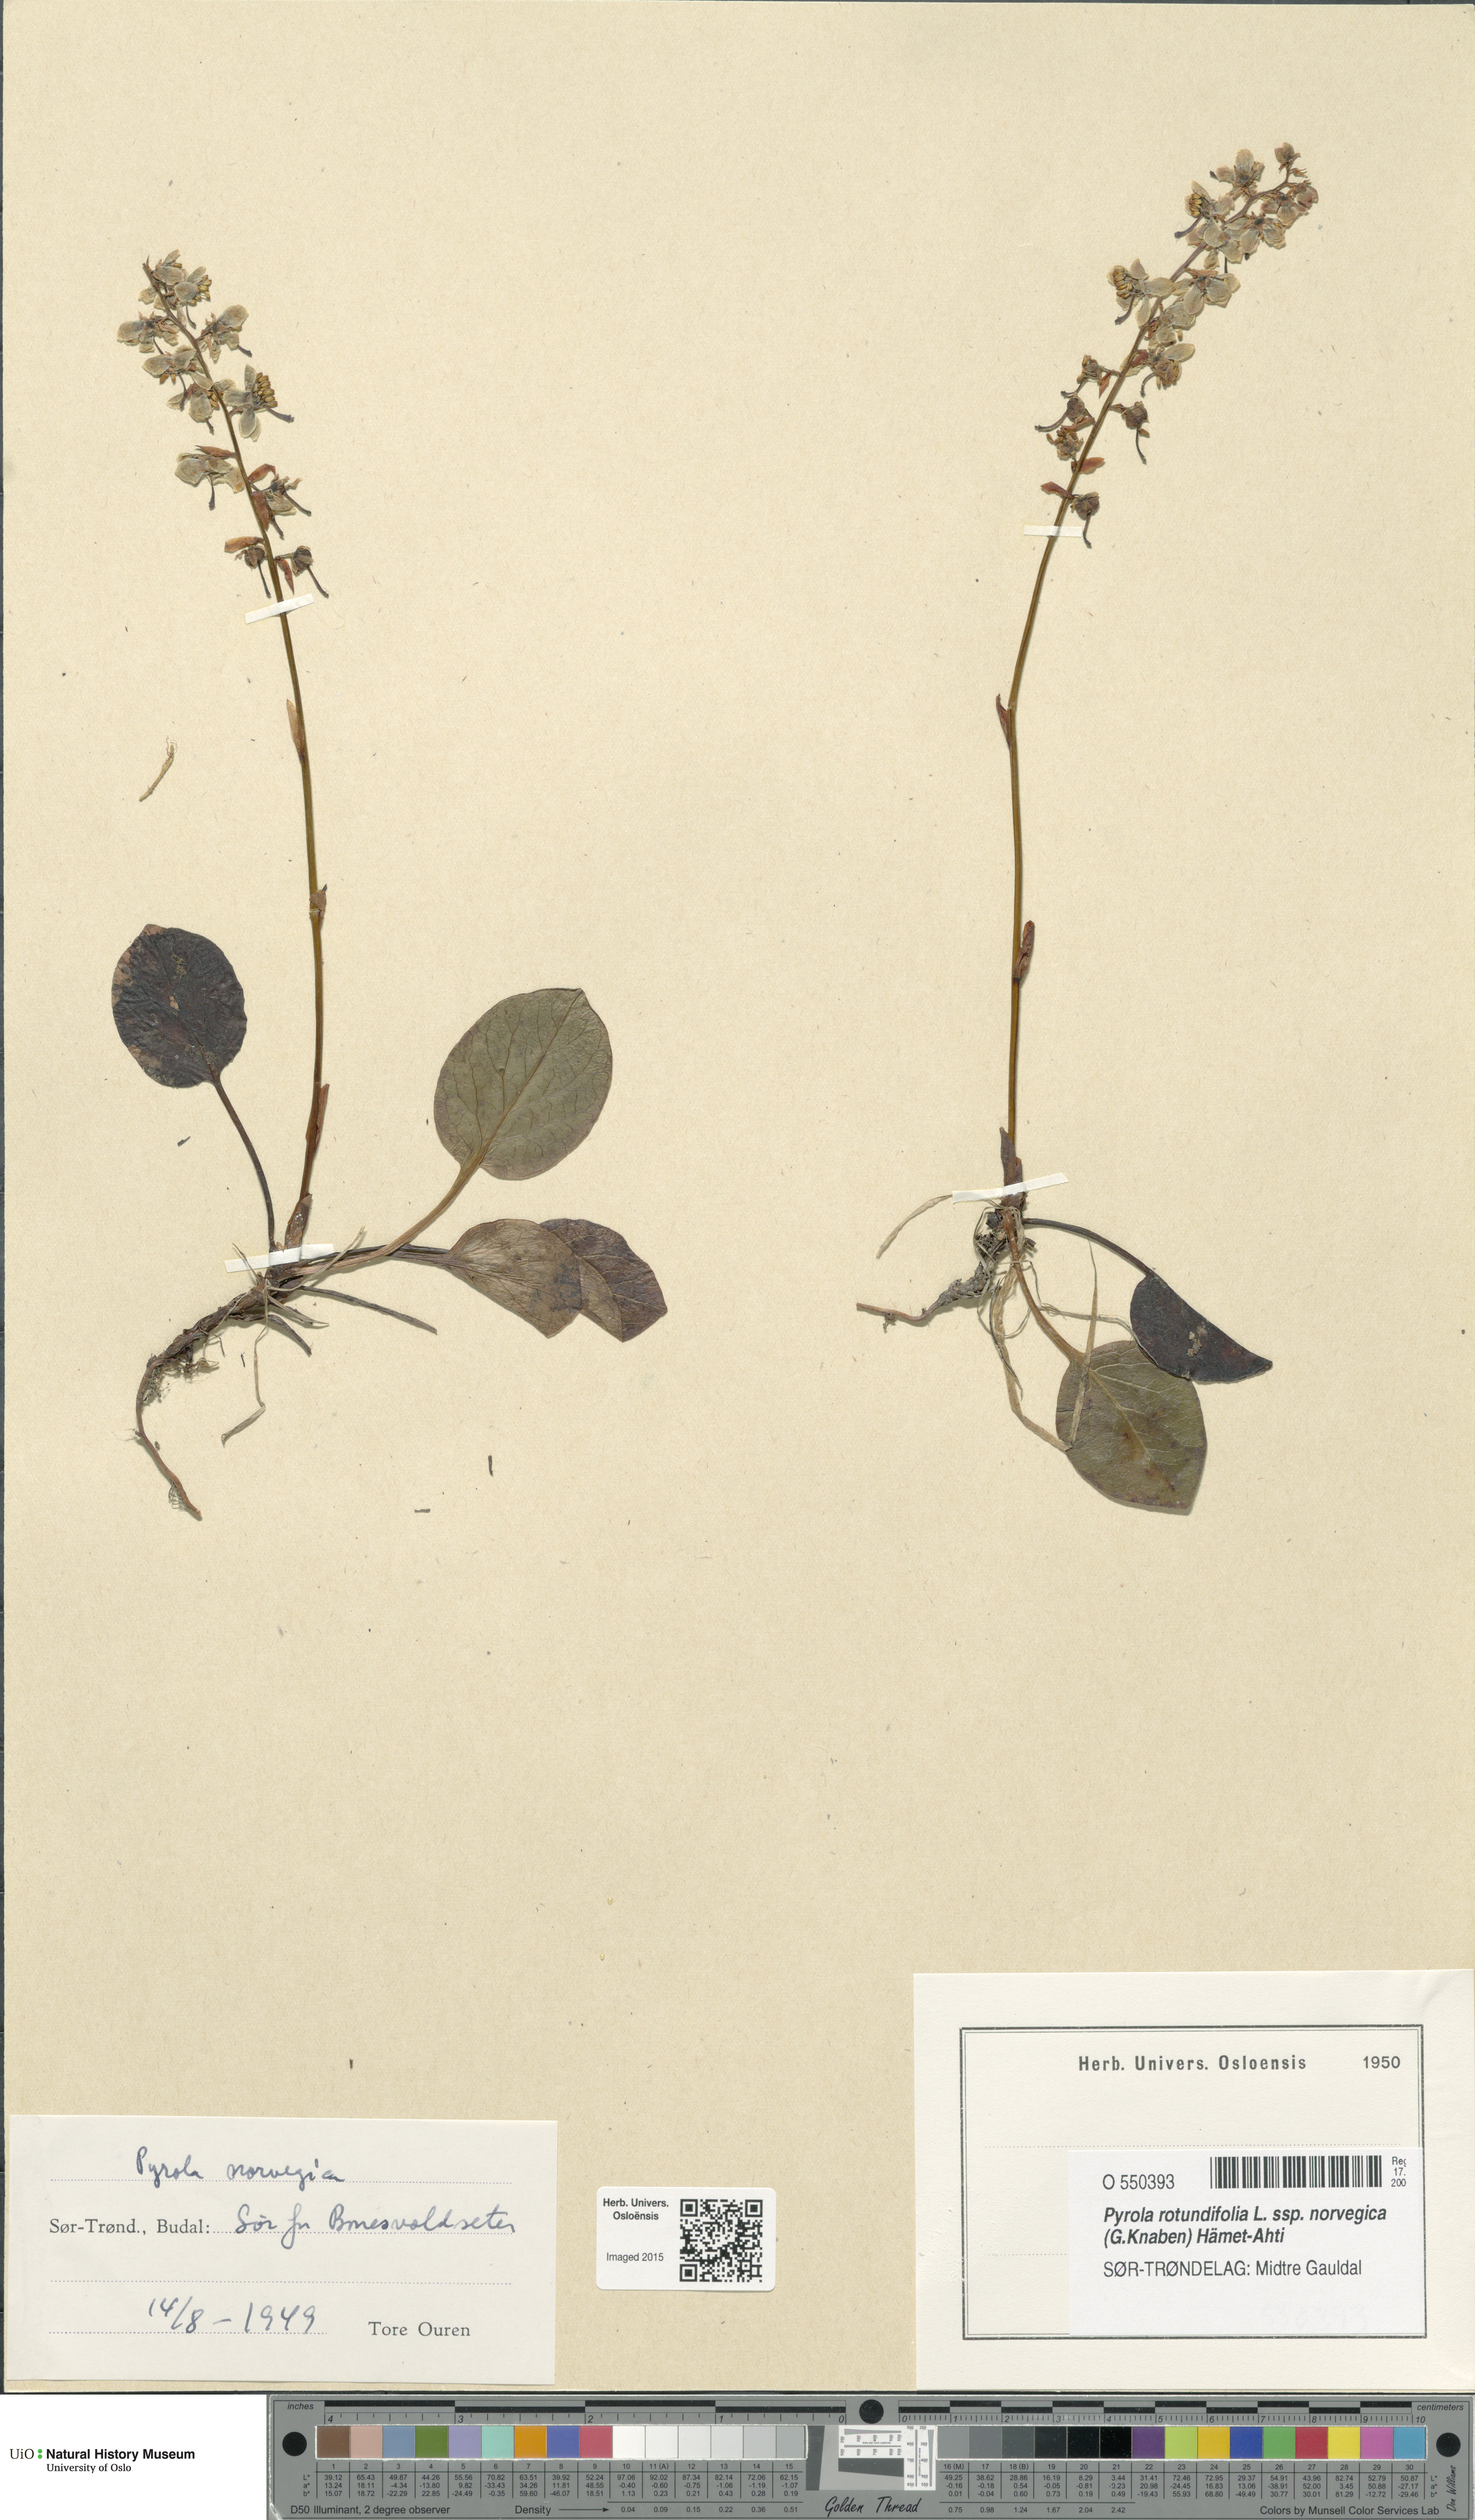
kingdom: Plantae
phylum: Tracheophyta
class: Magnoliopsida
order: Ericales
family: Ericaceae
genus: Pyrola
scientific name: Pyrola rotundifolia
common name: Round-leaved wintergreen
